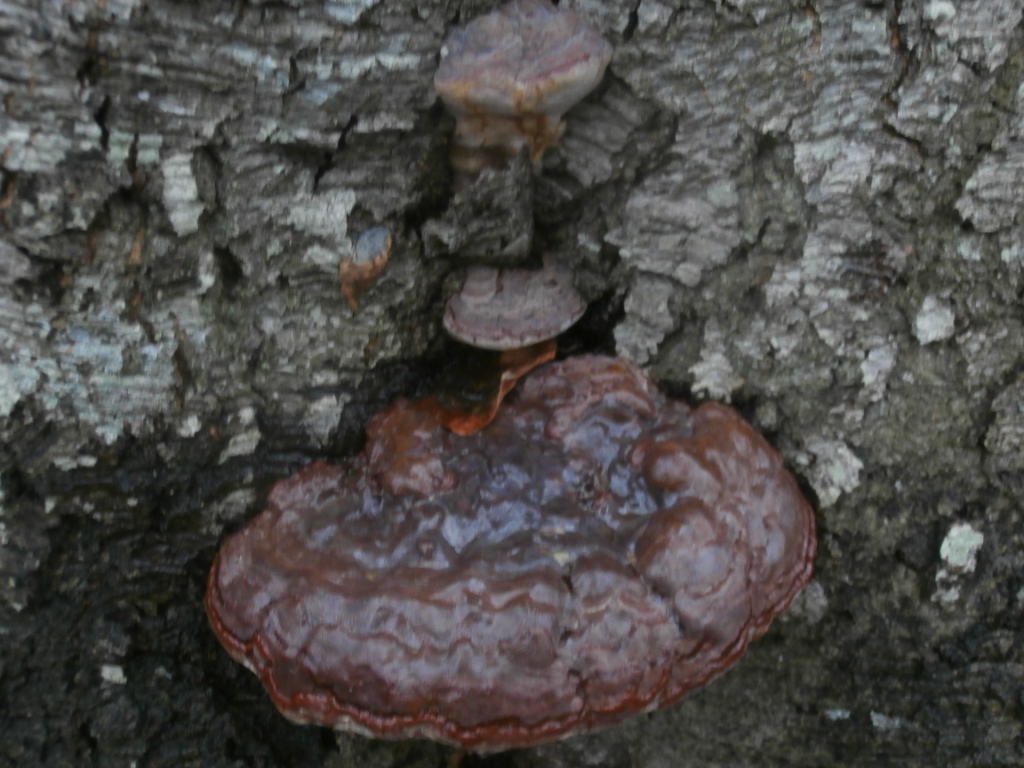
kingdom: Fungi
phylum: Basidiomycota
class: Agaricomycetes
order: Polyporales
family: Polyporaceae
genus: Ganoderma
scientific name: Ganoderma pfeifferi
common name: kobberrød lakporesvamp
